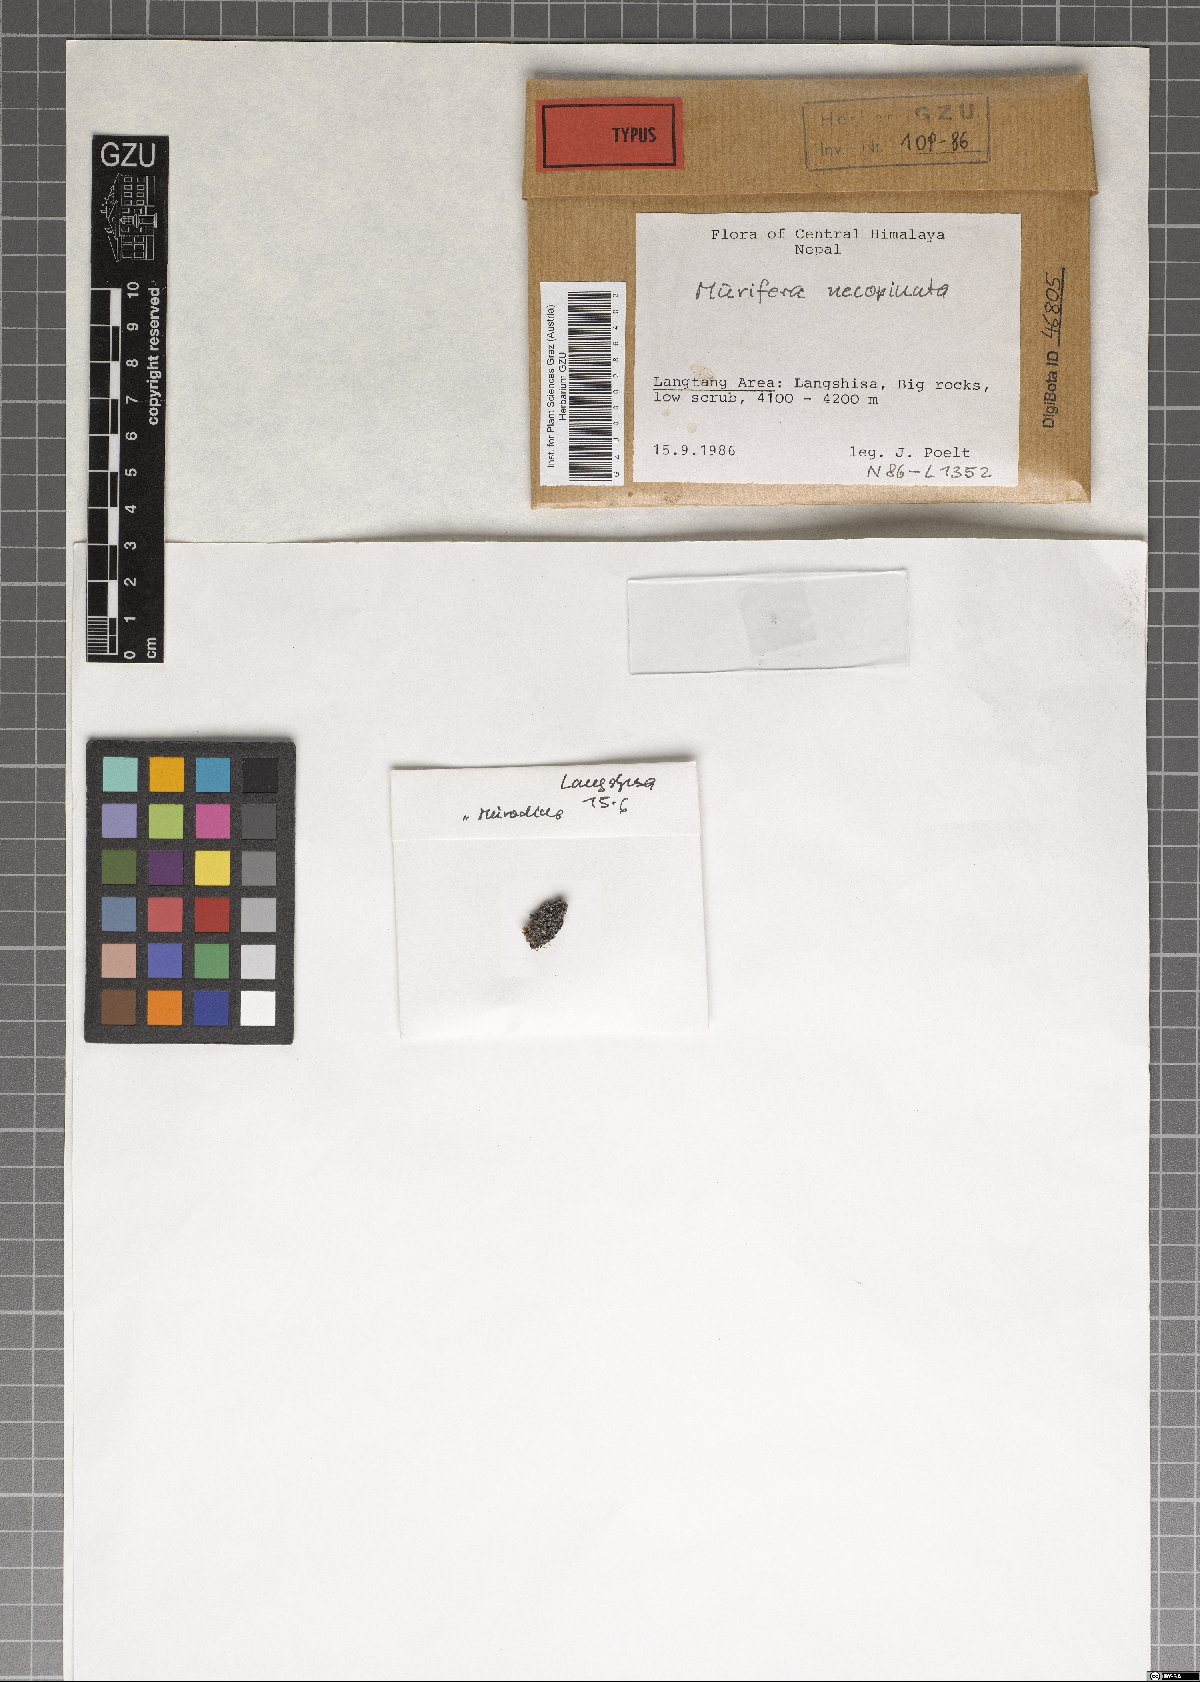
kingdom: Fungi
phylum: Ascomycota
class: Lecanoromycetes
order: Lecideales
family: Lecideaceae
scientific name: Lecideaceae
